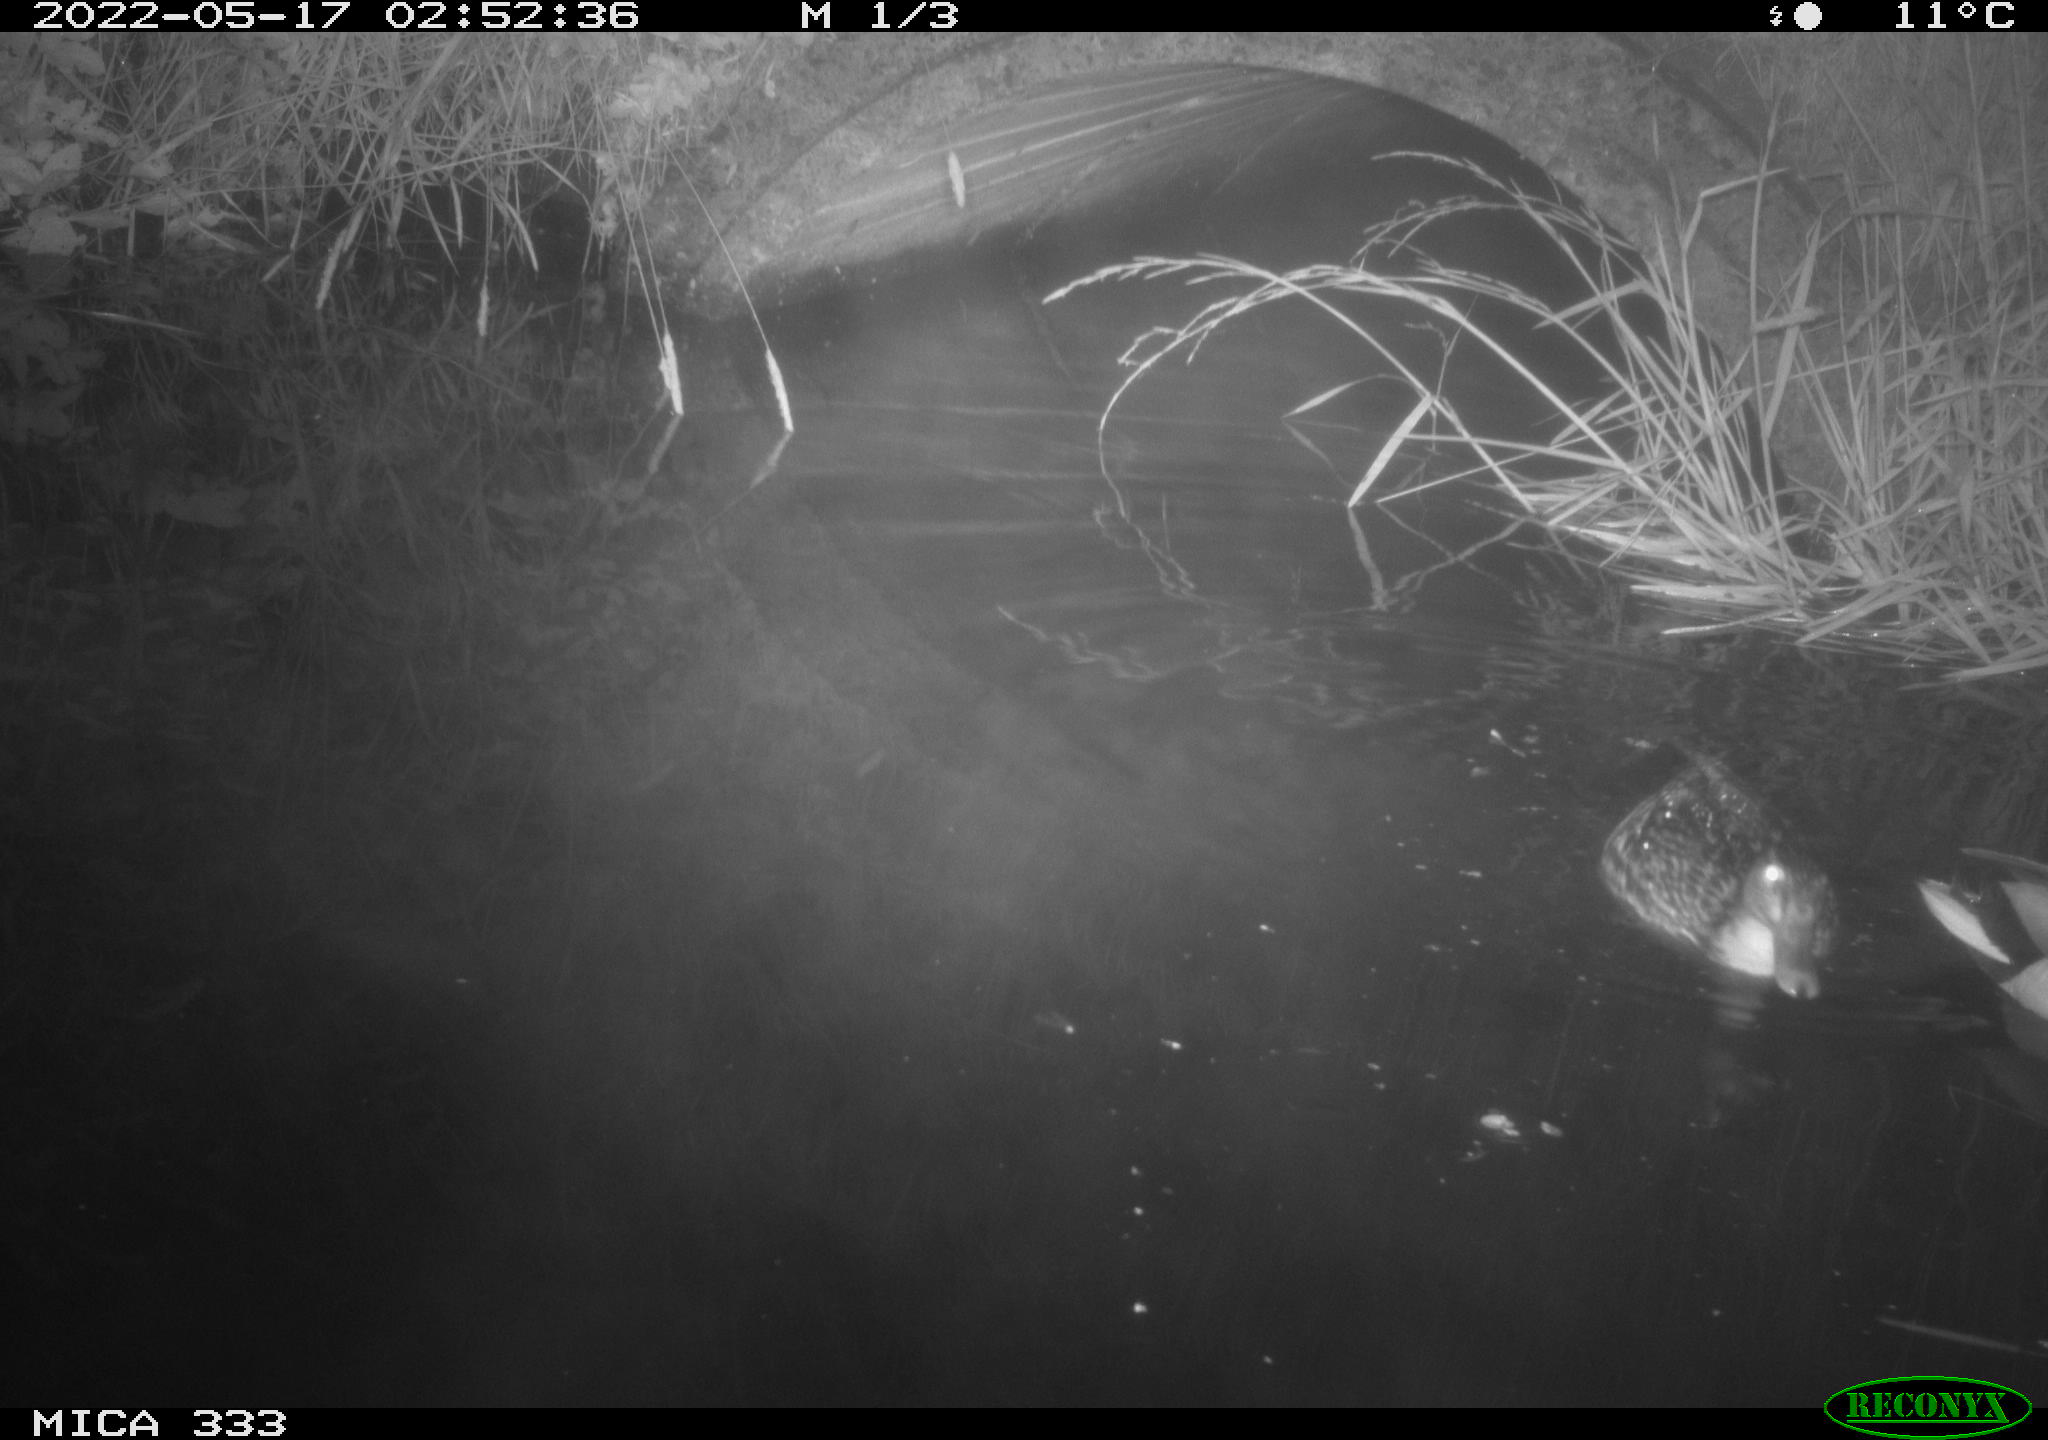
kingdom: Animalia
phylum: Chordata
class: Aves
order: Anseriformes
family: Anatidae
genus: Anas
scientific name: Anas platyrhynchos
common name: Mallard
